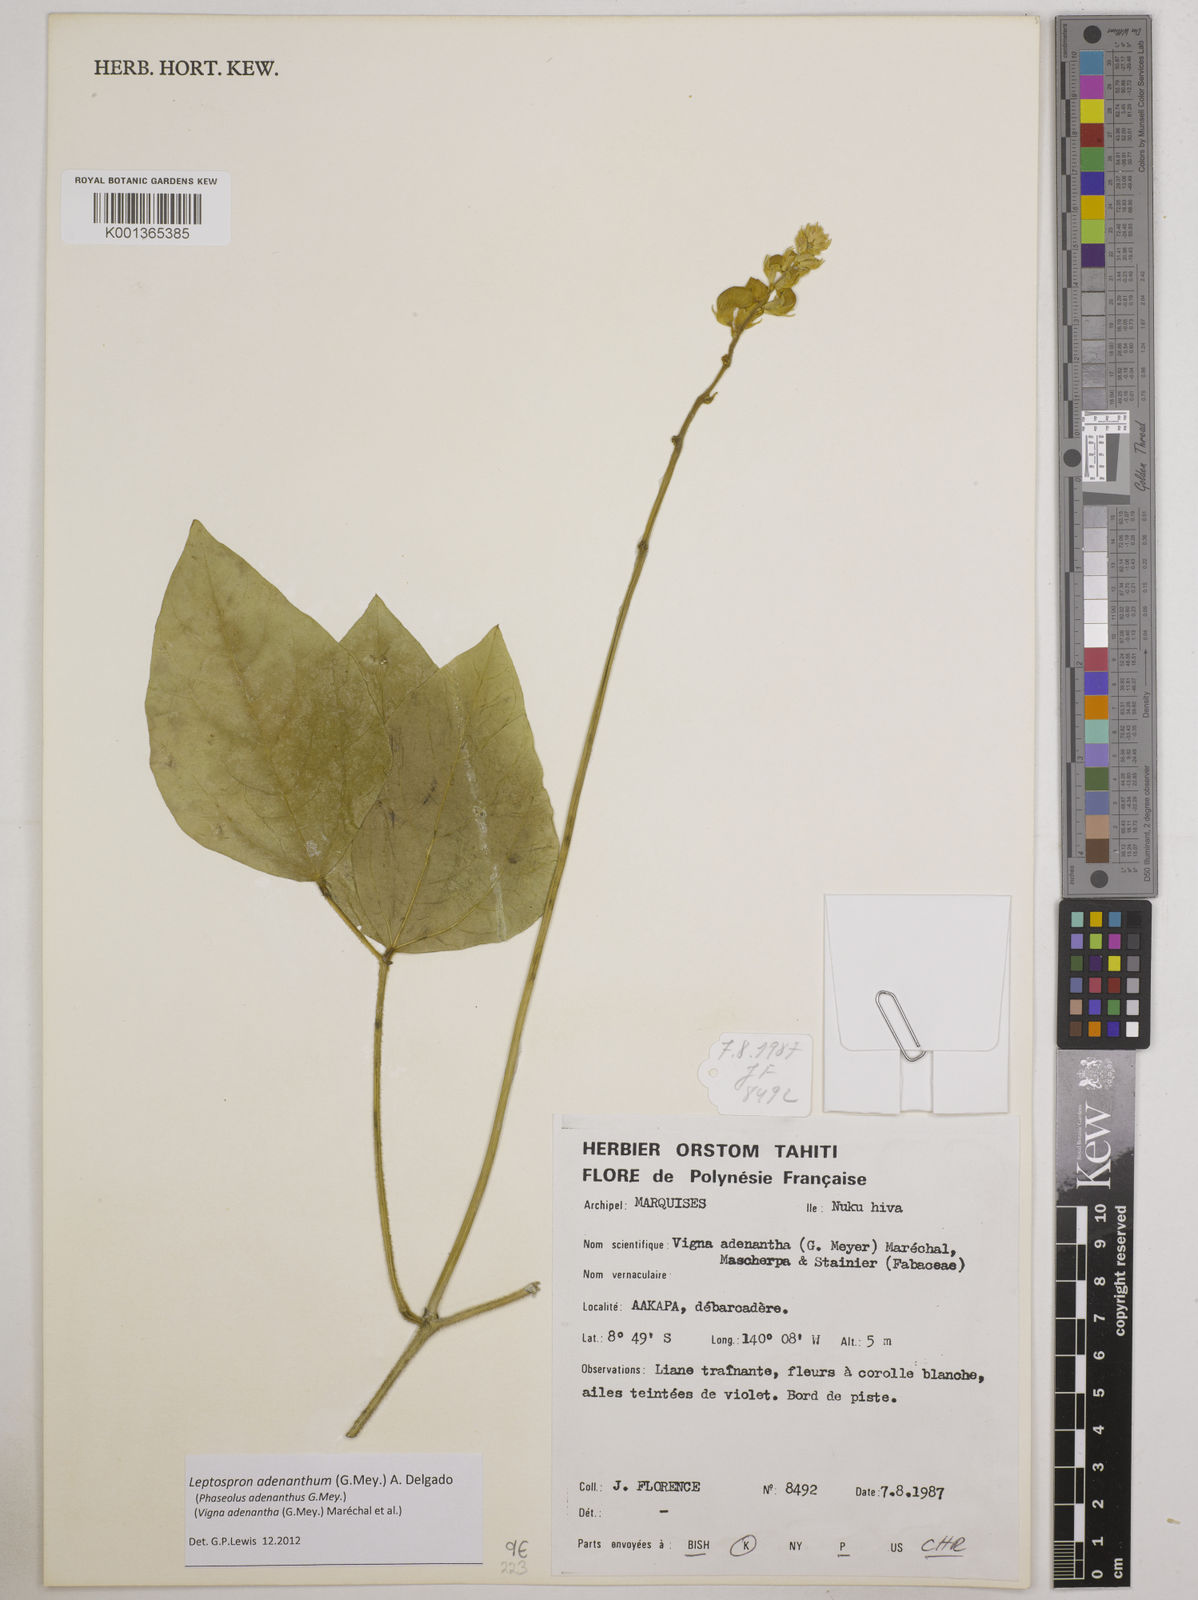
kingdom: Plantae
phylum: Tracheophyta
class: Magnoliopsida
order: Fabales
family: Fabaceae
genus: Leptospron
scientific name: Leptospron adenanthum
